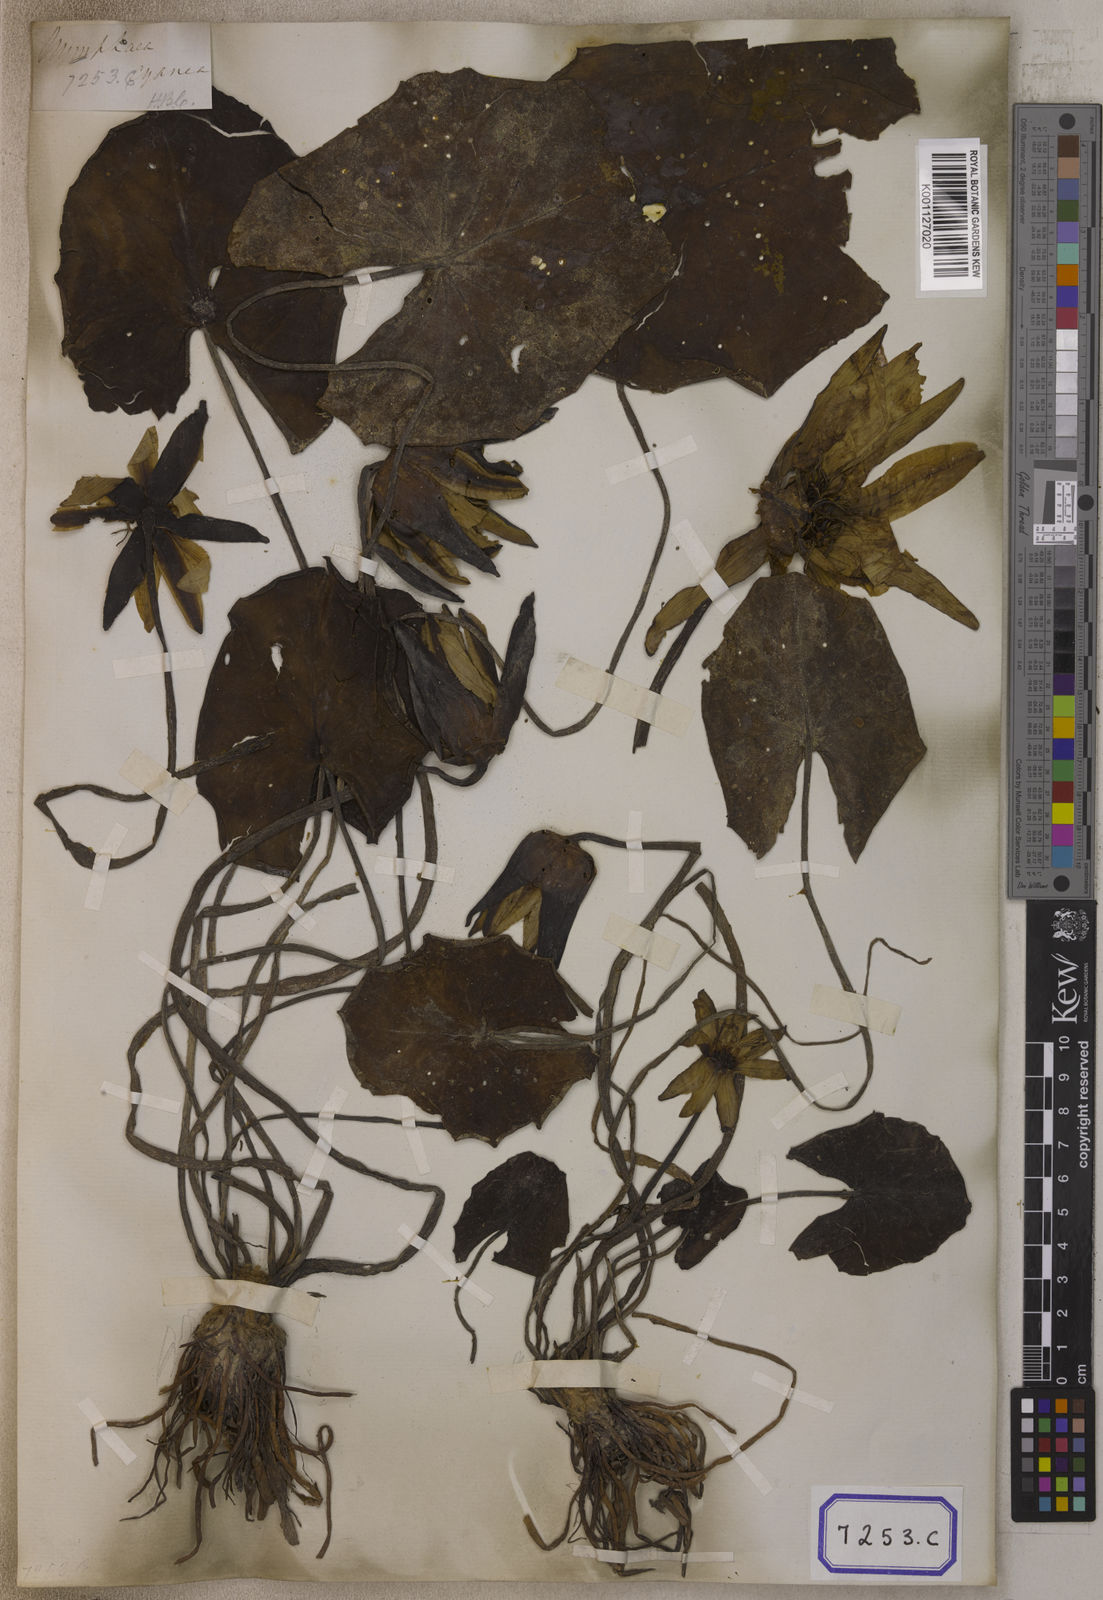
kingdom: Plantae
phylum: Tracheophyta
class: Magnoliopsida
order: Nymphaeales
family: Nymphaeaceae
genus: Nymphaea
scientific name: Nymphaea nouchali
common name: Blue lotus
